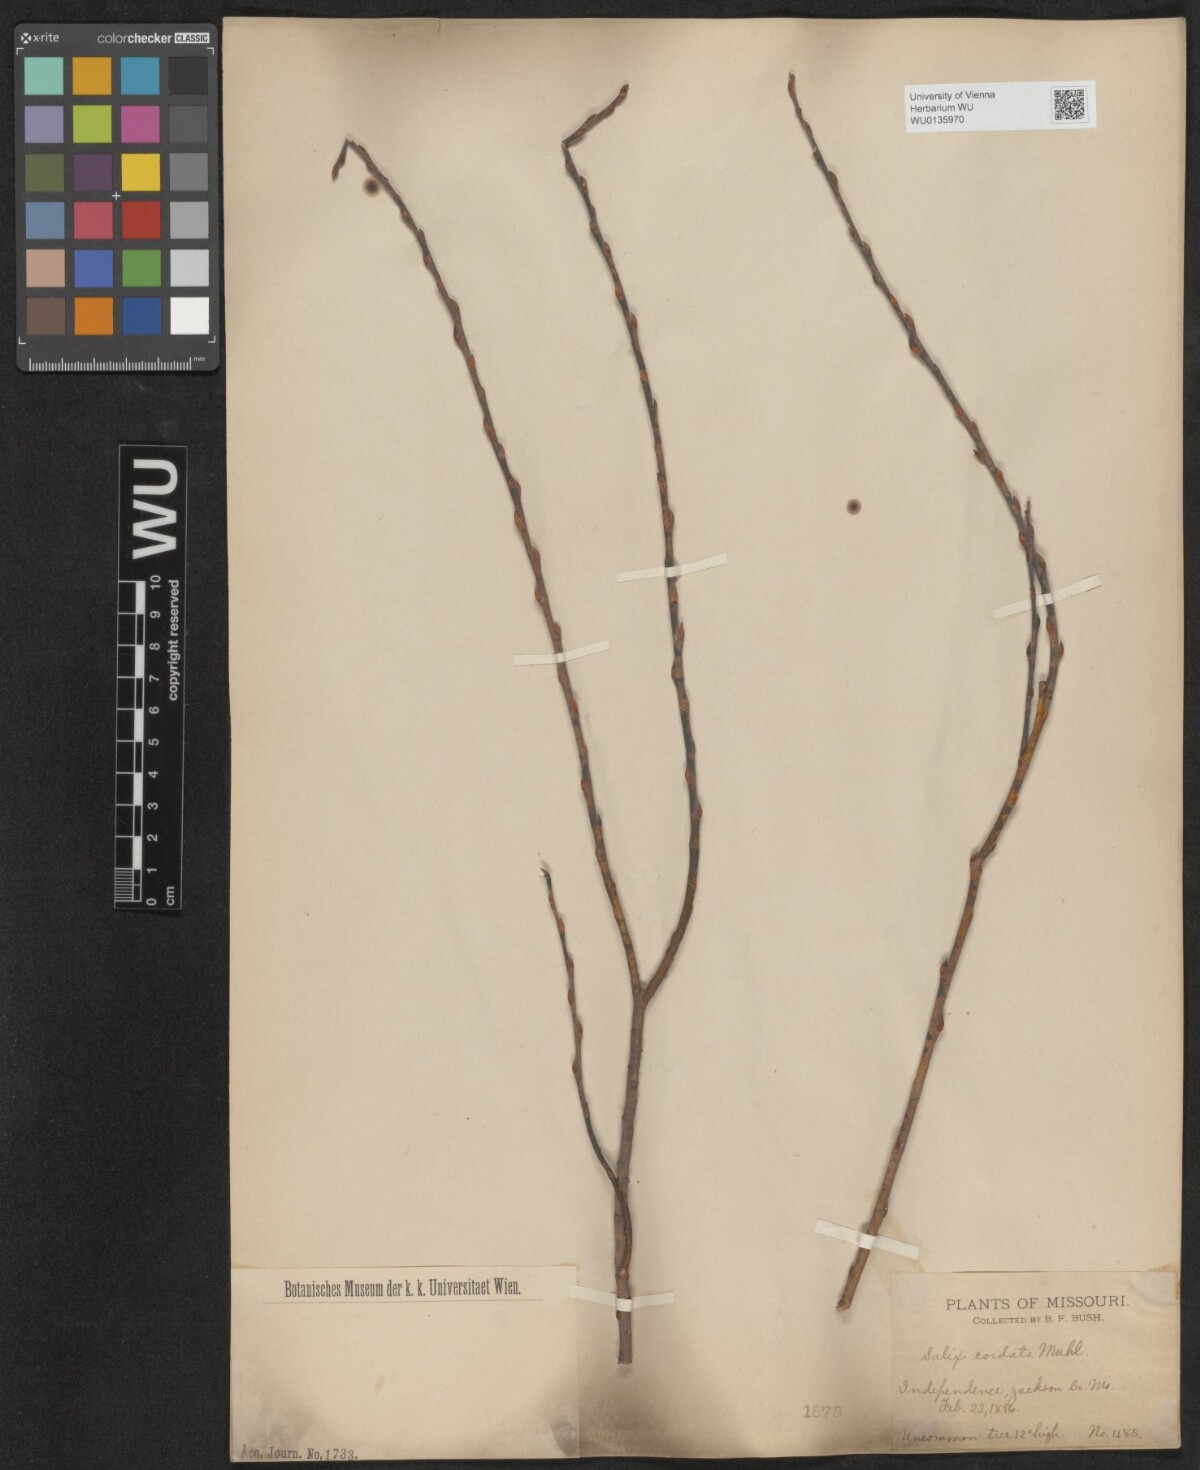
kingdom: Plantae
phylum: Tracheophyta
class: Magnoliopsida
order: Malpighiales
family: Salicaceae
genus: Salix
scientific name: Salix cordata
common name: Heart-leaf willow
